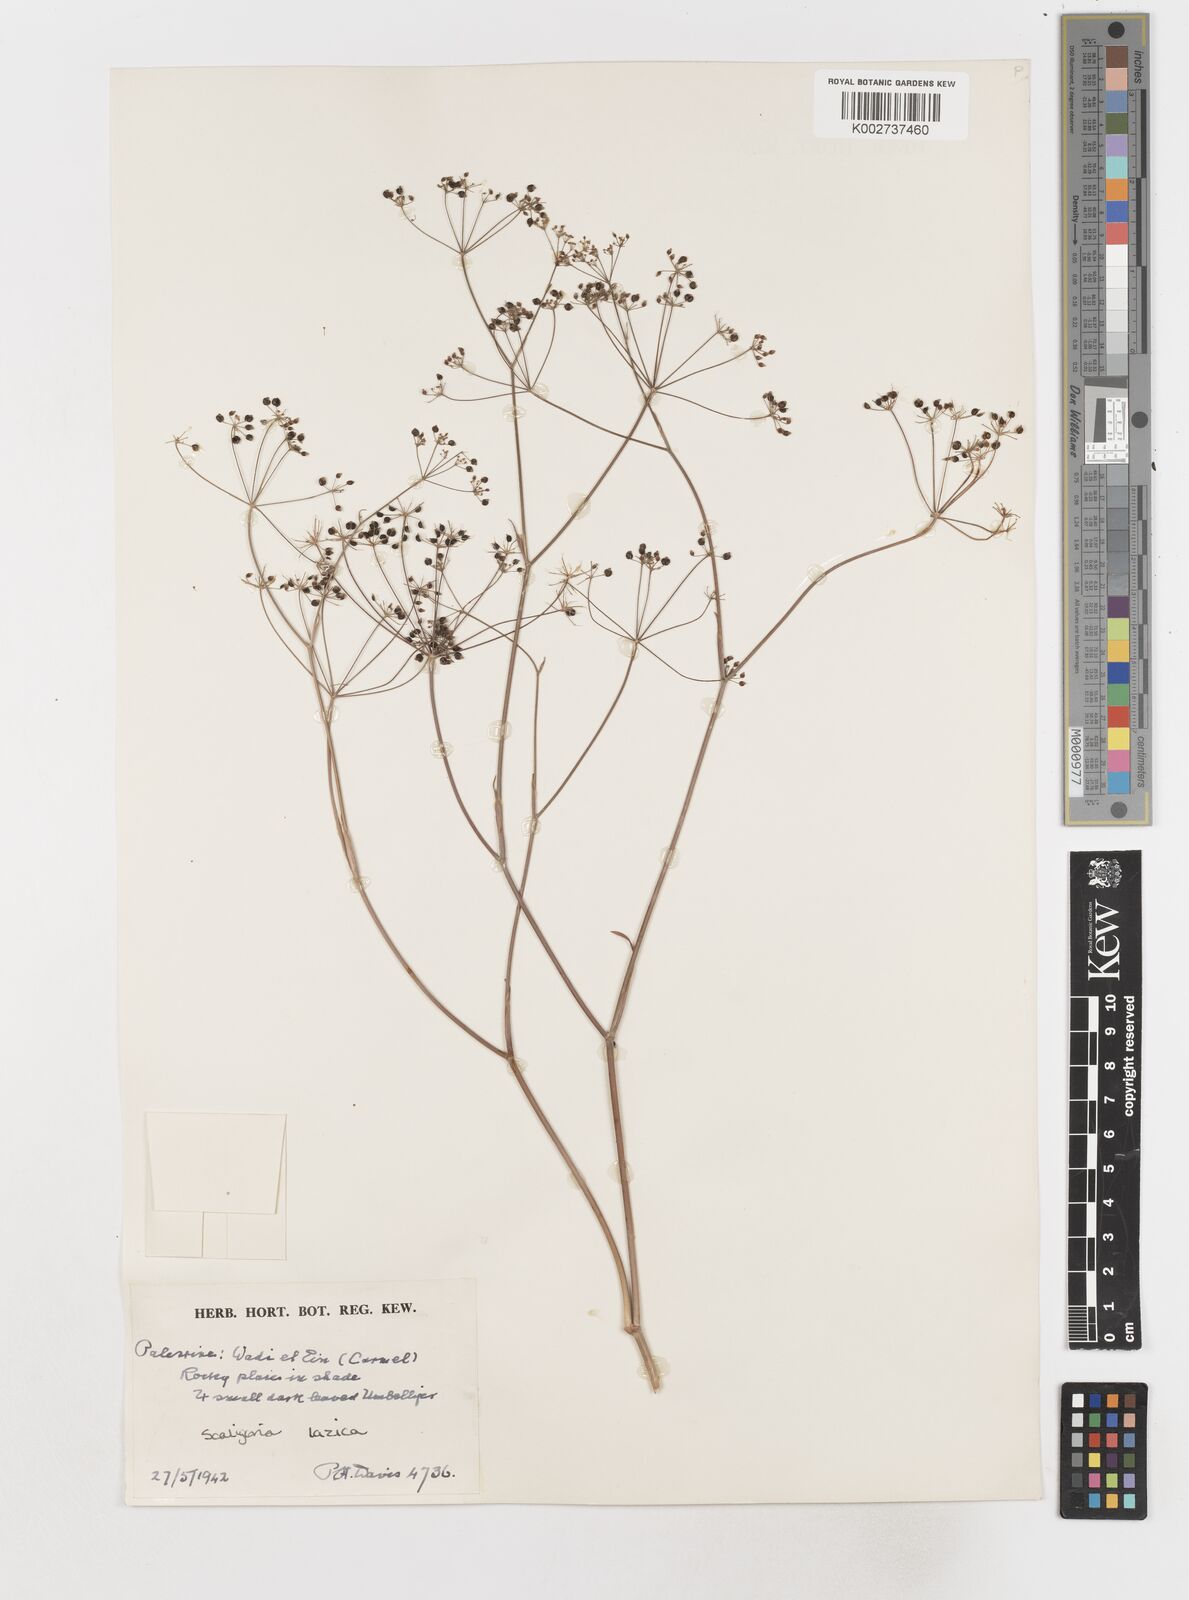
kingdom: Plantae
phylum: Tracheophyta
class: Magnoliopsida
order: Apiales
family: Apiaceae
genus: Scaligeria
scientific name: Scaligeria
